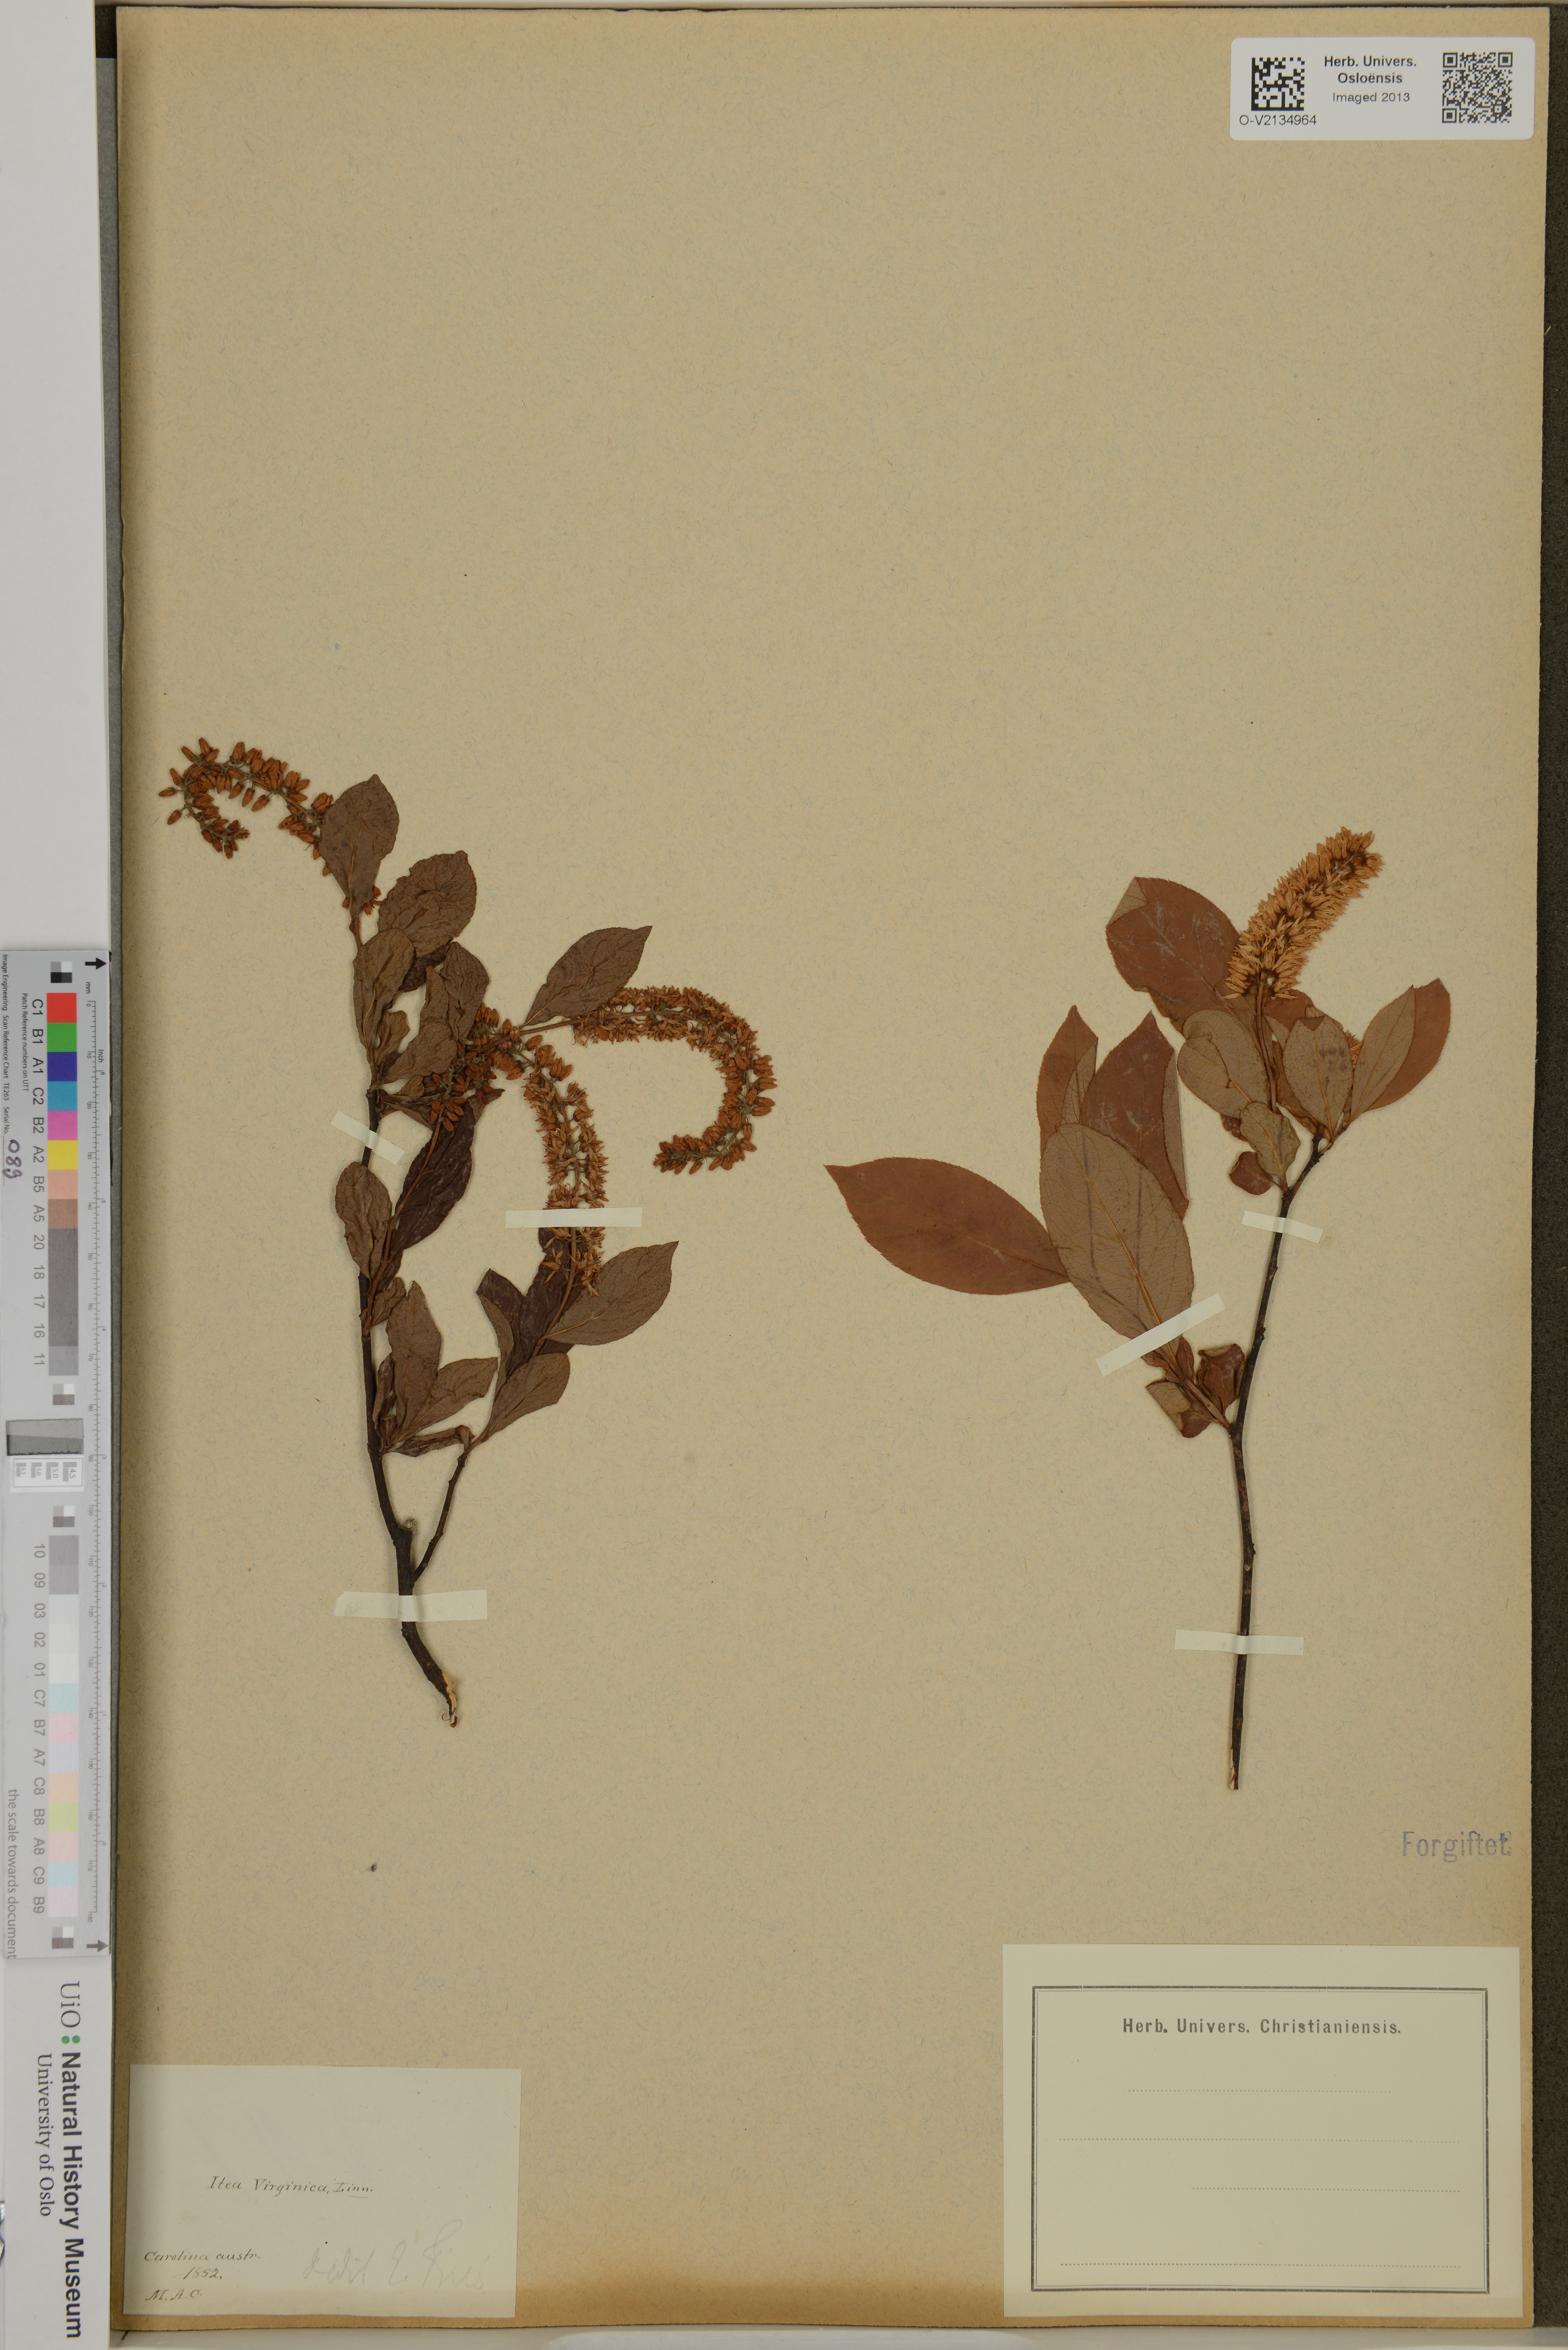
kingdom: Plantae
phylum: Tracheophyta
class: Magnoliopsida
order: Saxifragales
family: Iteaceae
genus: Itea
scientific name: Itea virginica
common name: Sweetspire
